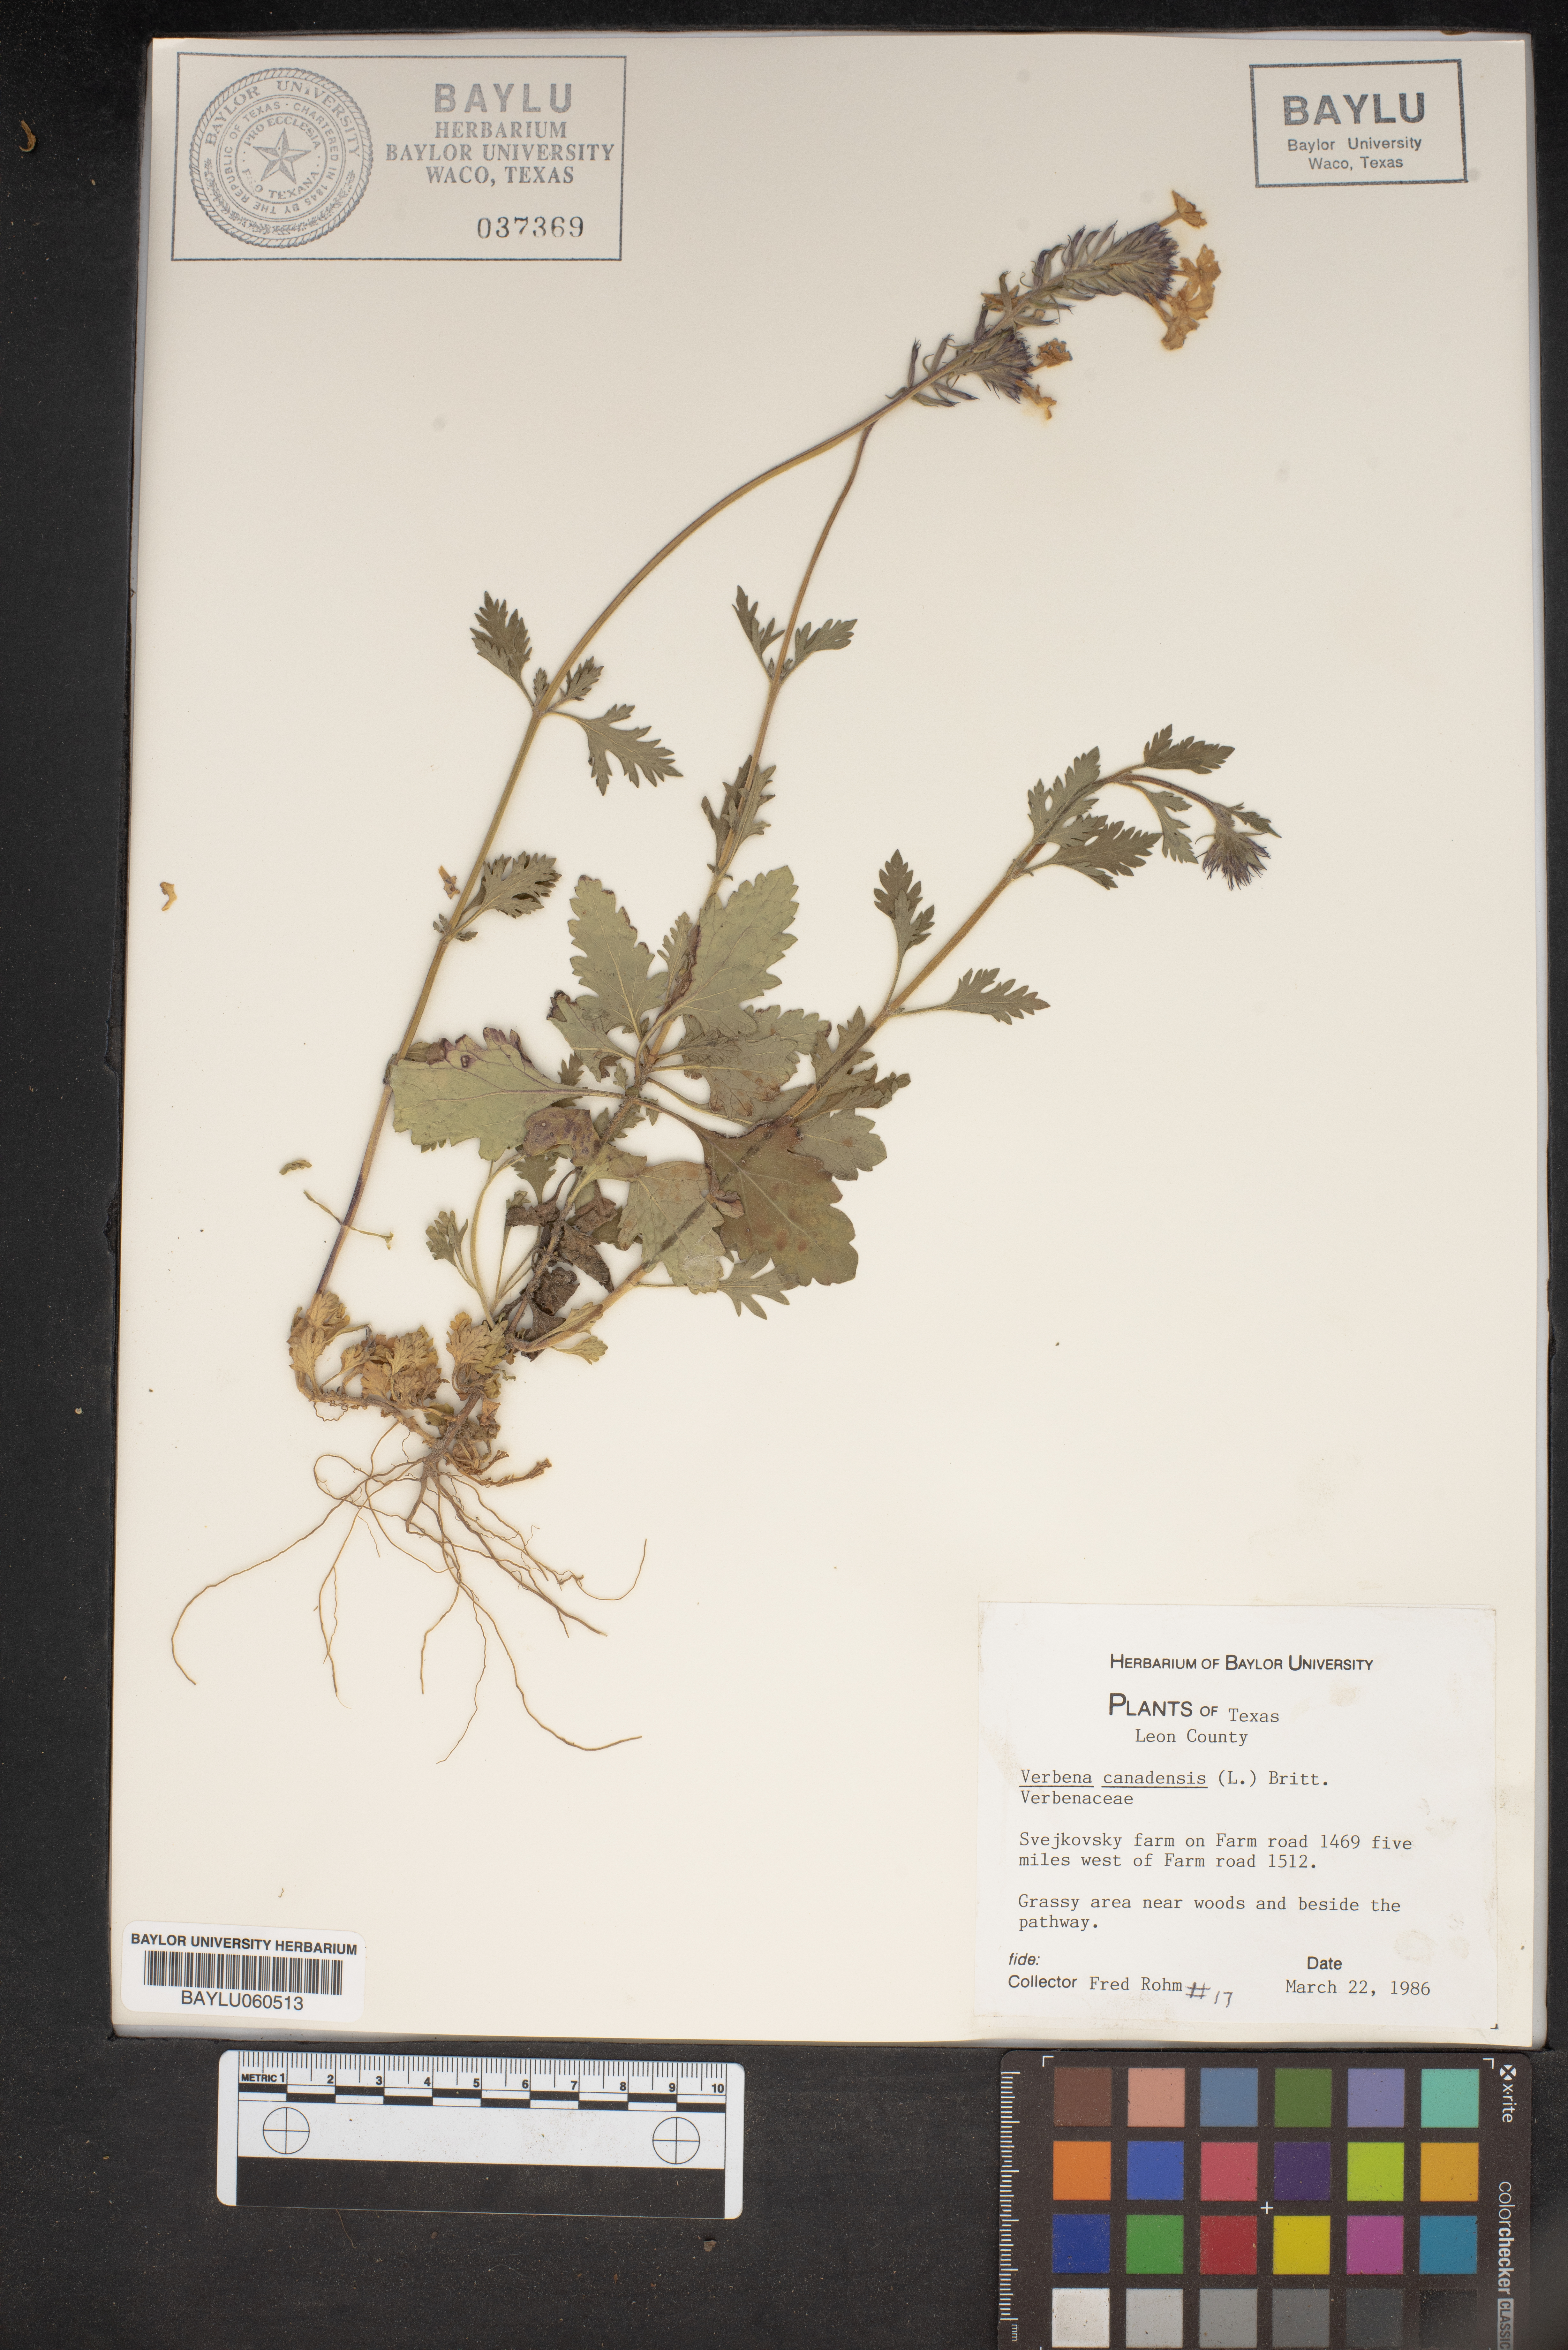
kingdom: Plantae
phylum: Tracheophyta
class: Magnoliopsida
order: Lamiales
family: Verbenaceae
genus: Verbena
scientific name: Verbena canadensis
